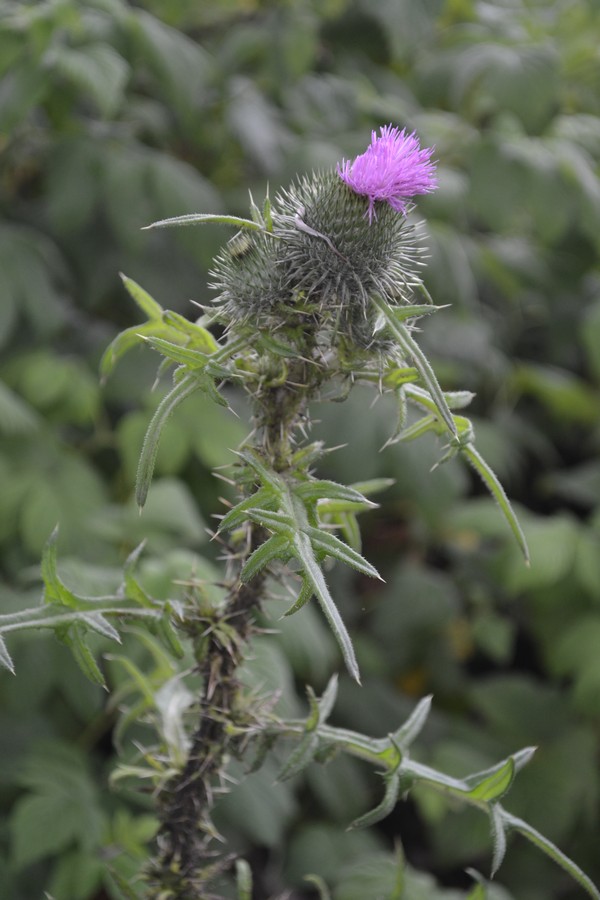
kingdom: Plantae
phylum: Tracheophyta
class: Magnoliopsida
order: Asterales
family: Asteraceae
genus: Cirsium
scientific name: Cirsium vulgare
